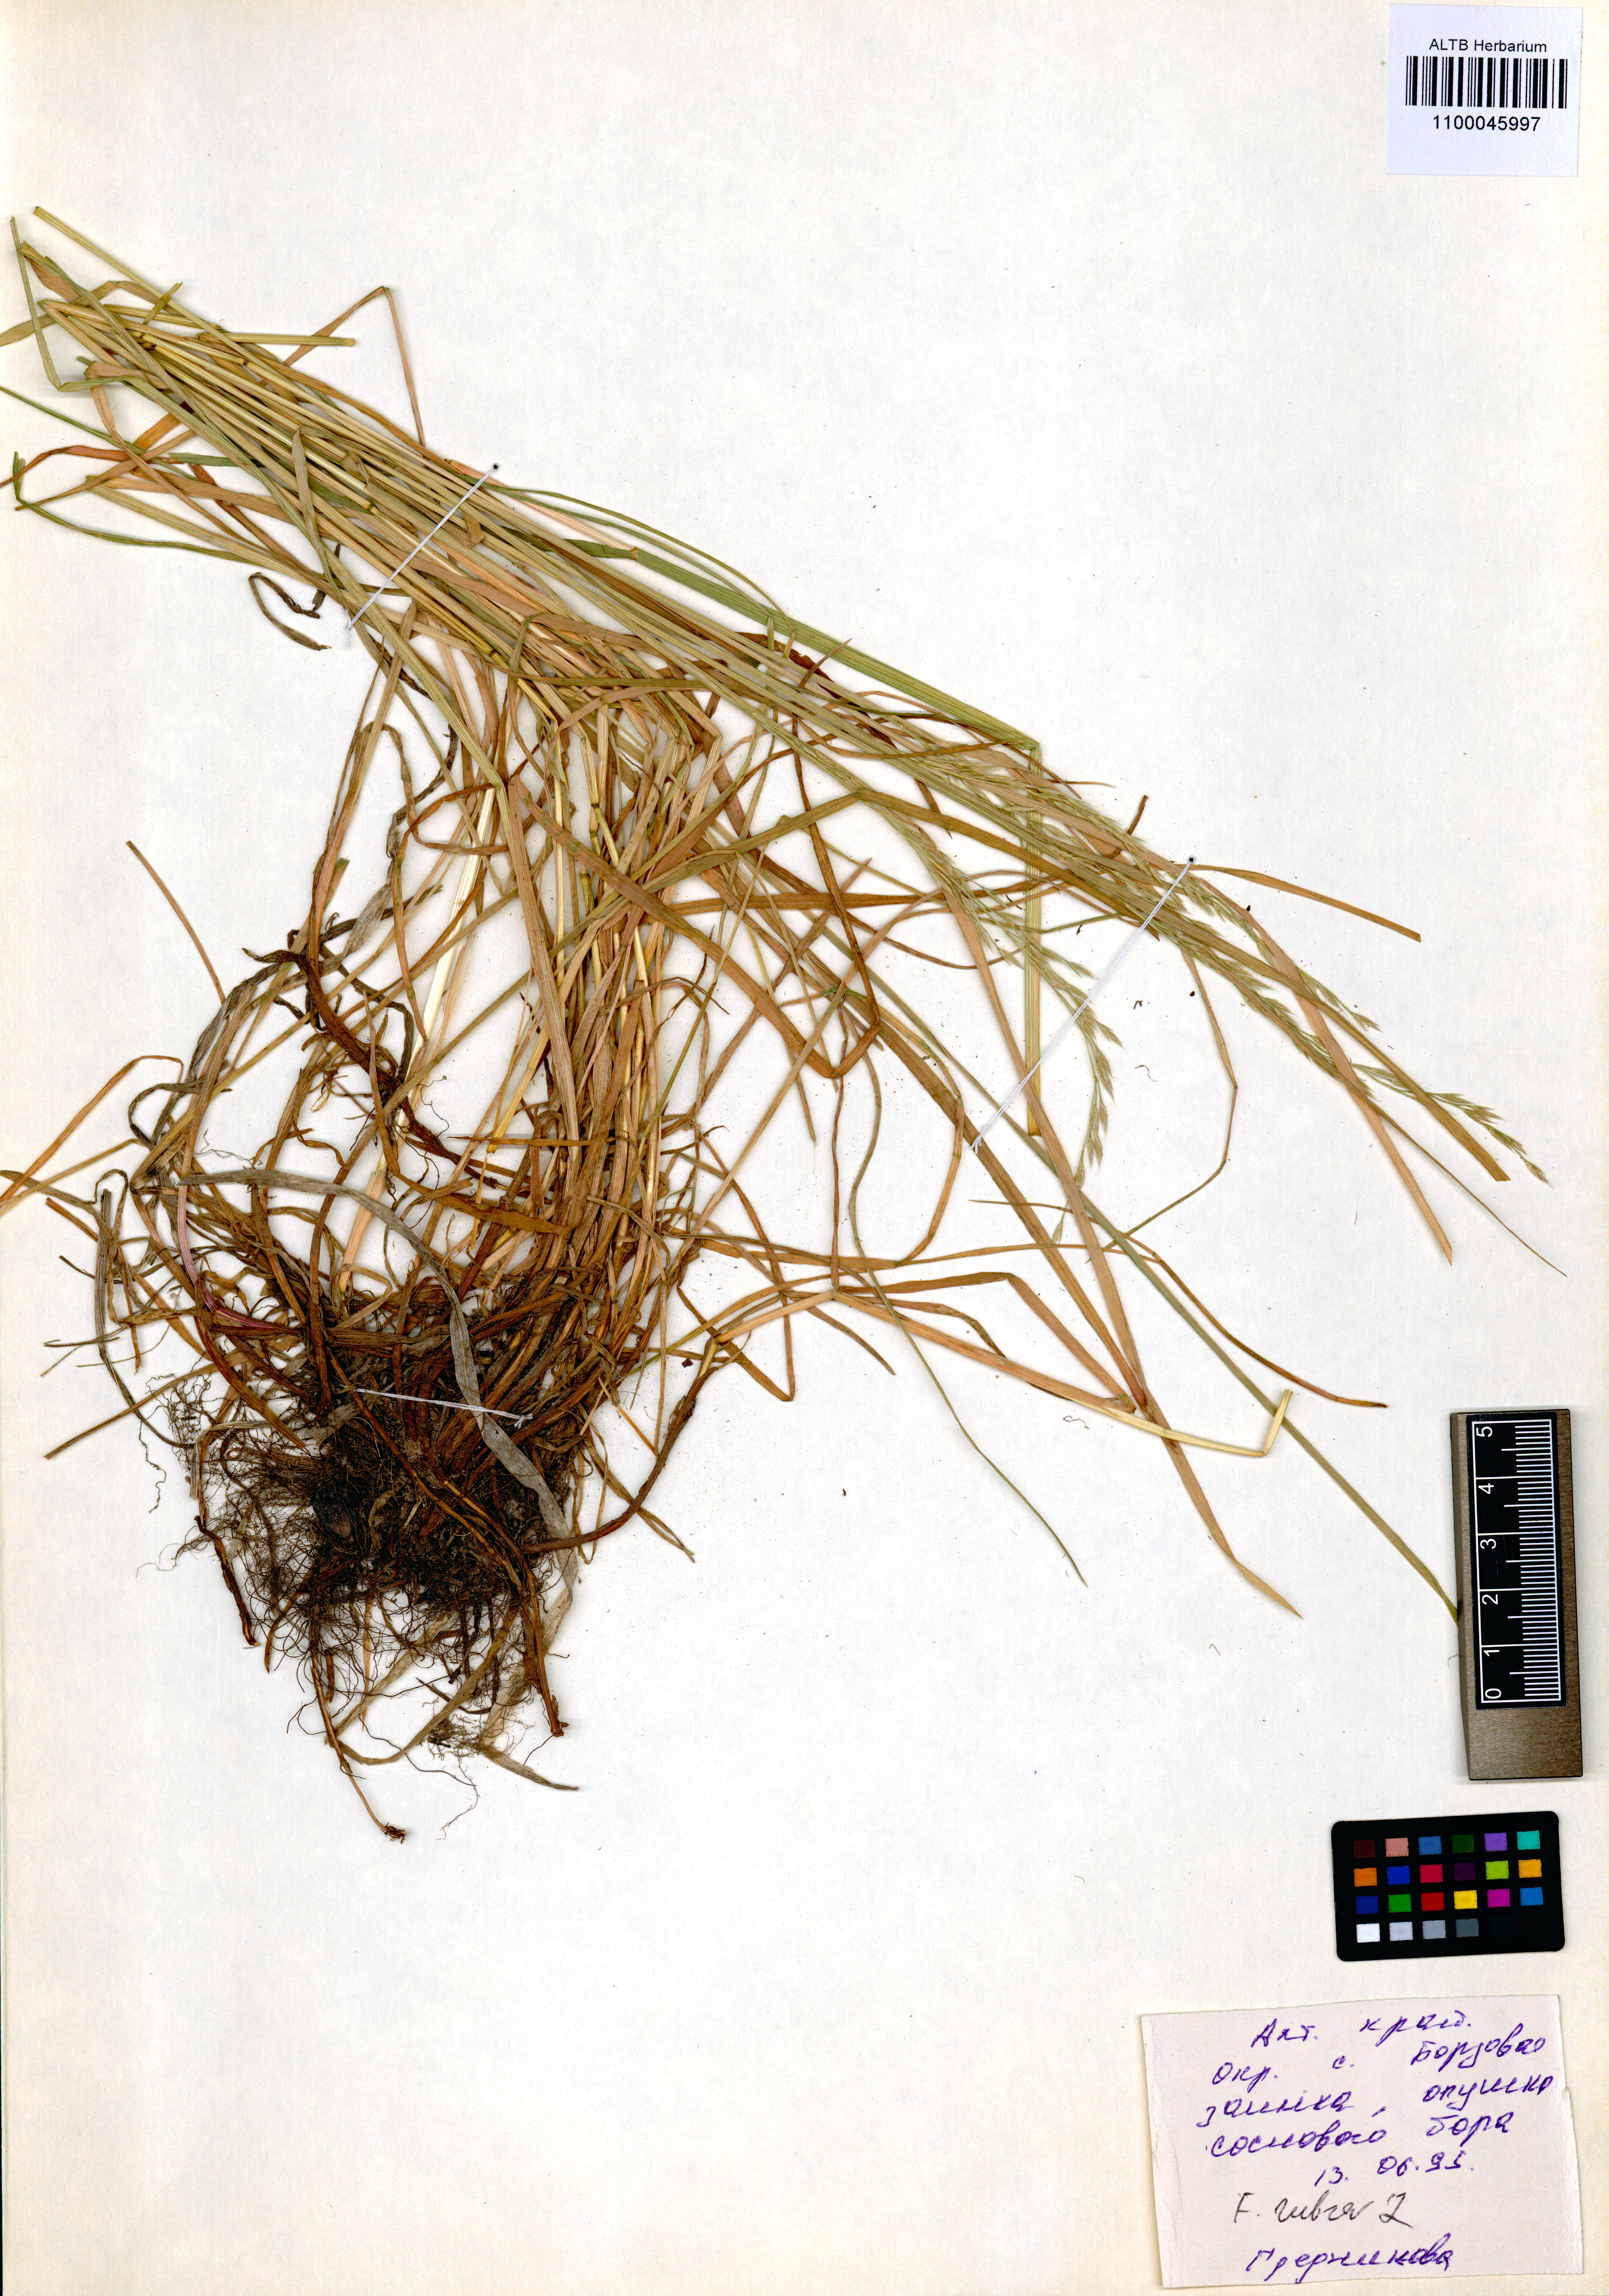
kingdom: Plantae
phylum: Tracheophyta
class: Liliopsida
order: Poales
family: Poaceae
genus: Festuca
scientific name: Festuca rubra
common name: Red fescue
